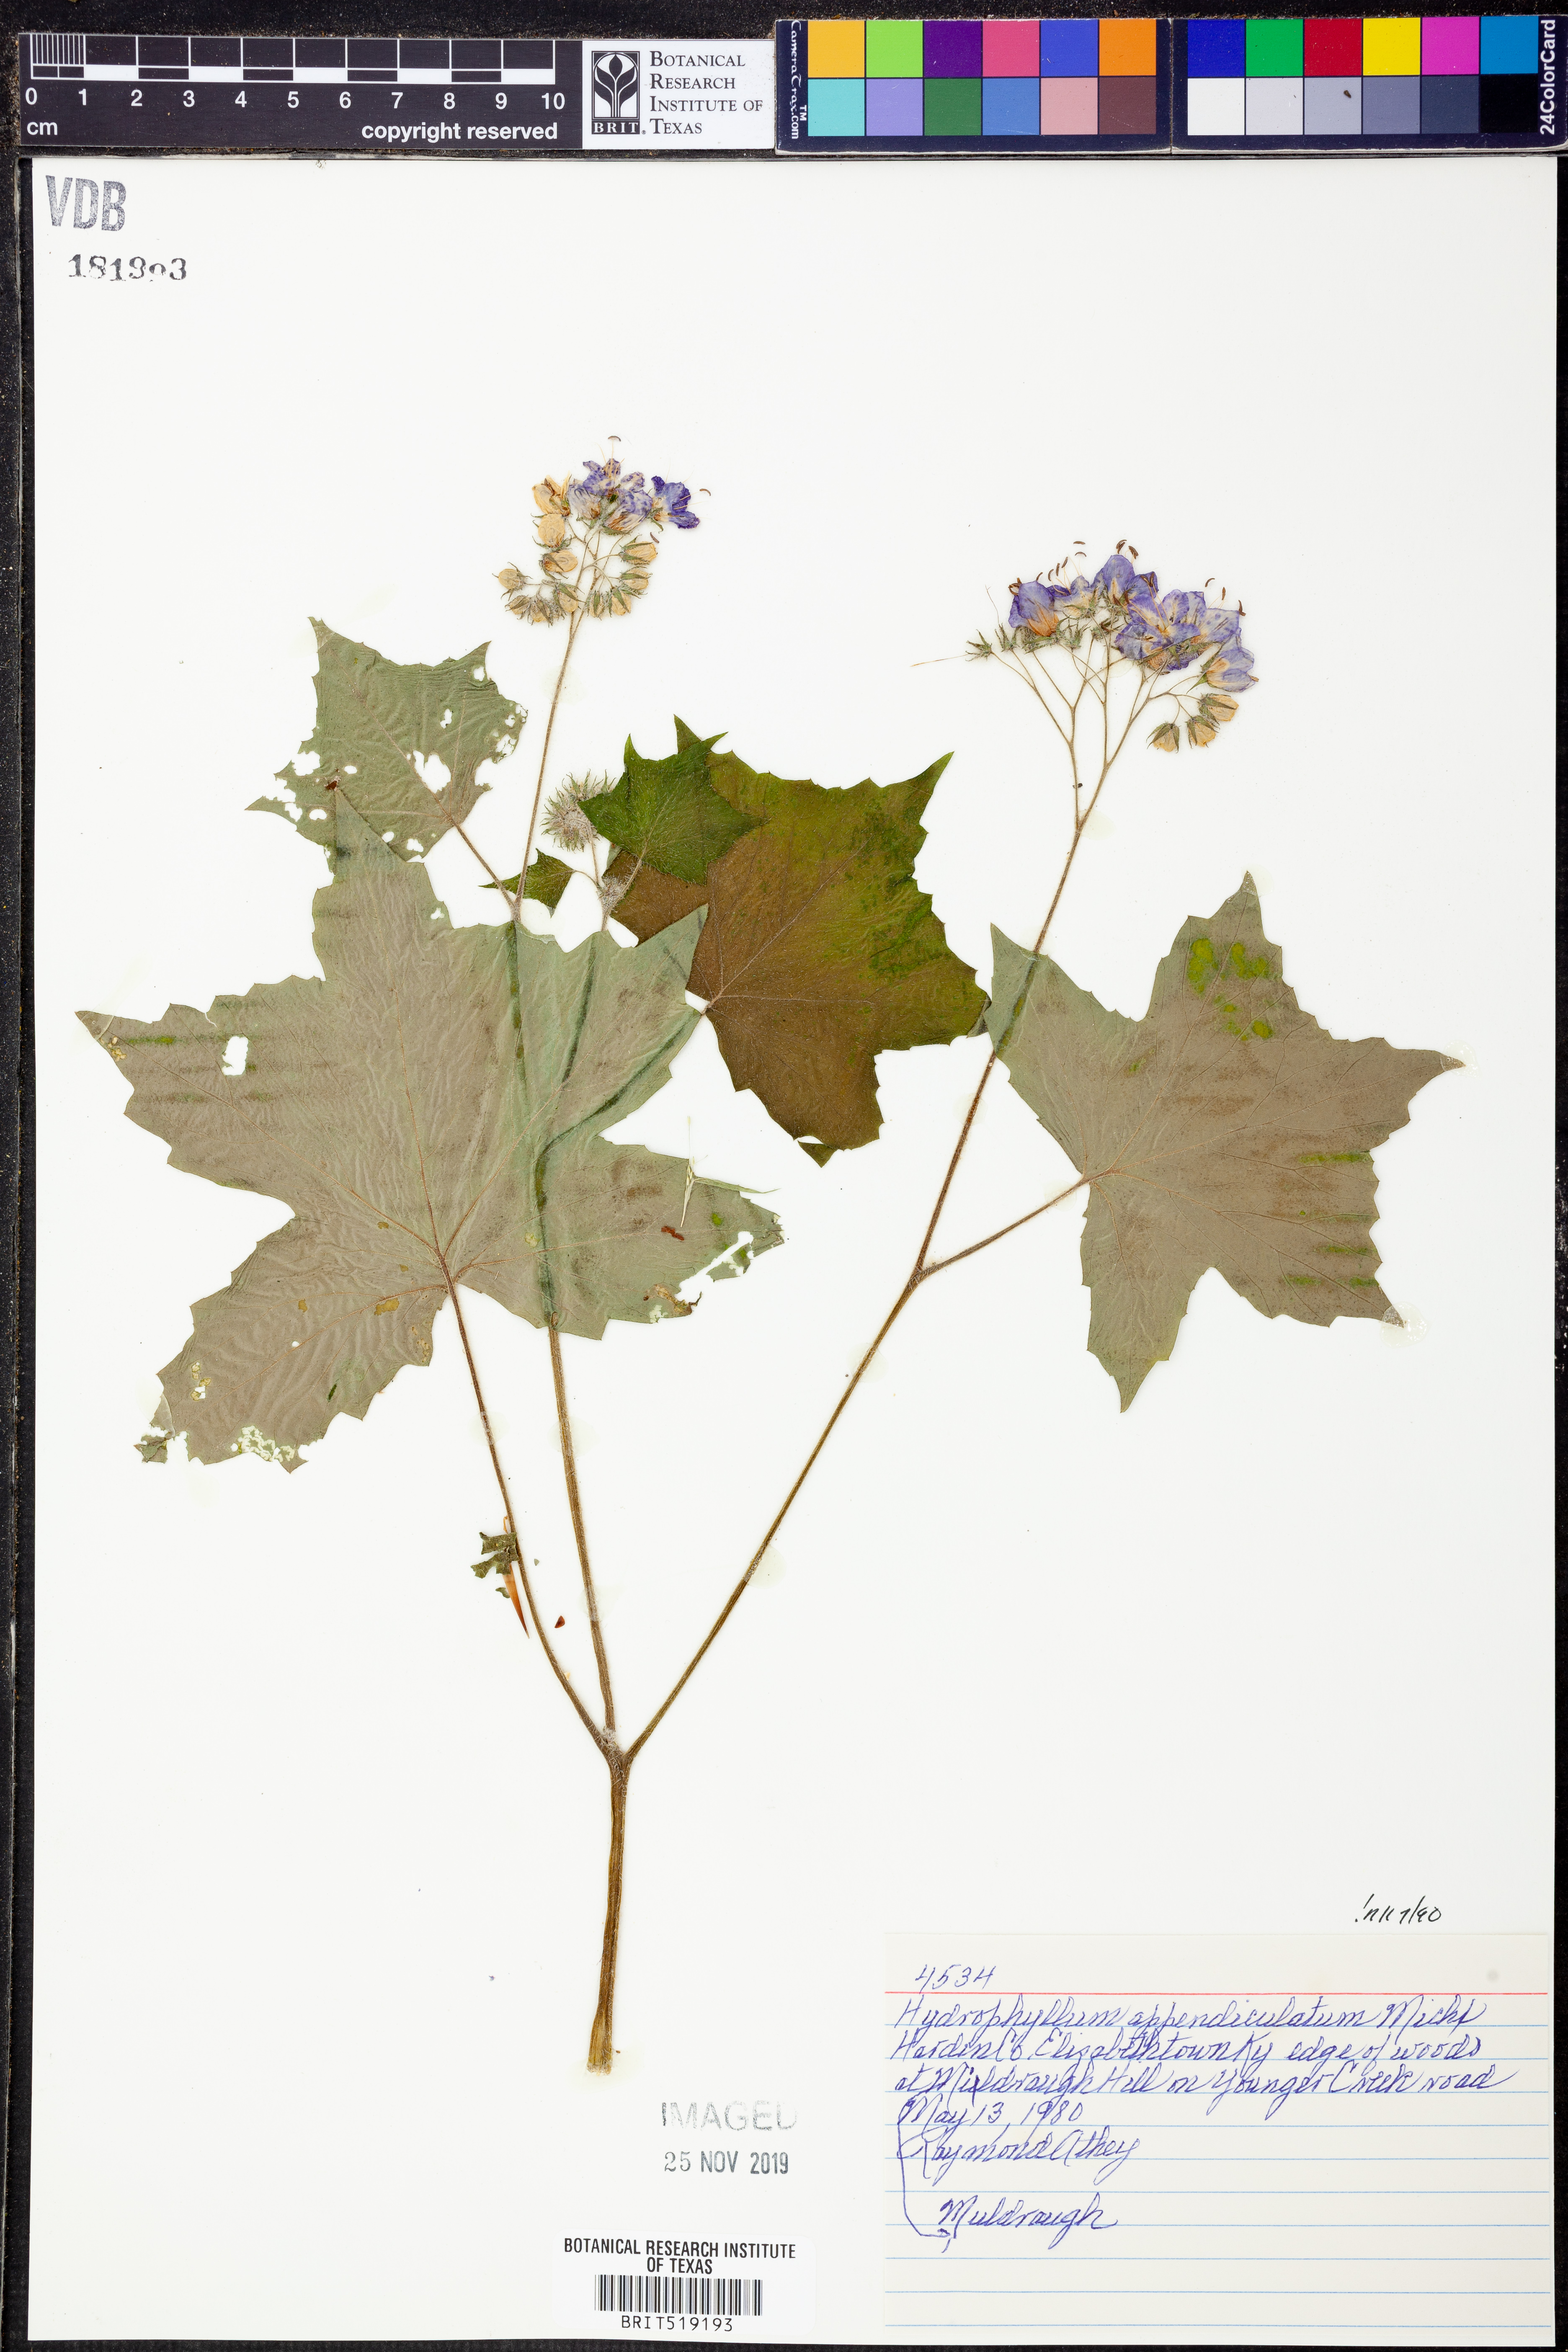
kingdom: Plantae
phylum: Tracheophyta
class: Magnoliopsida
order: Boraginales
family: Hydrophyllaceae
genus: Hydrophyllum
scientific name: Hydrophyllum appendiculatum
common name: Appendaged waterleaf
